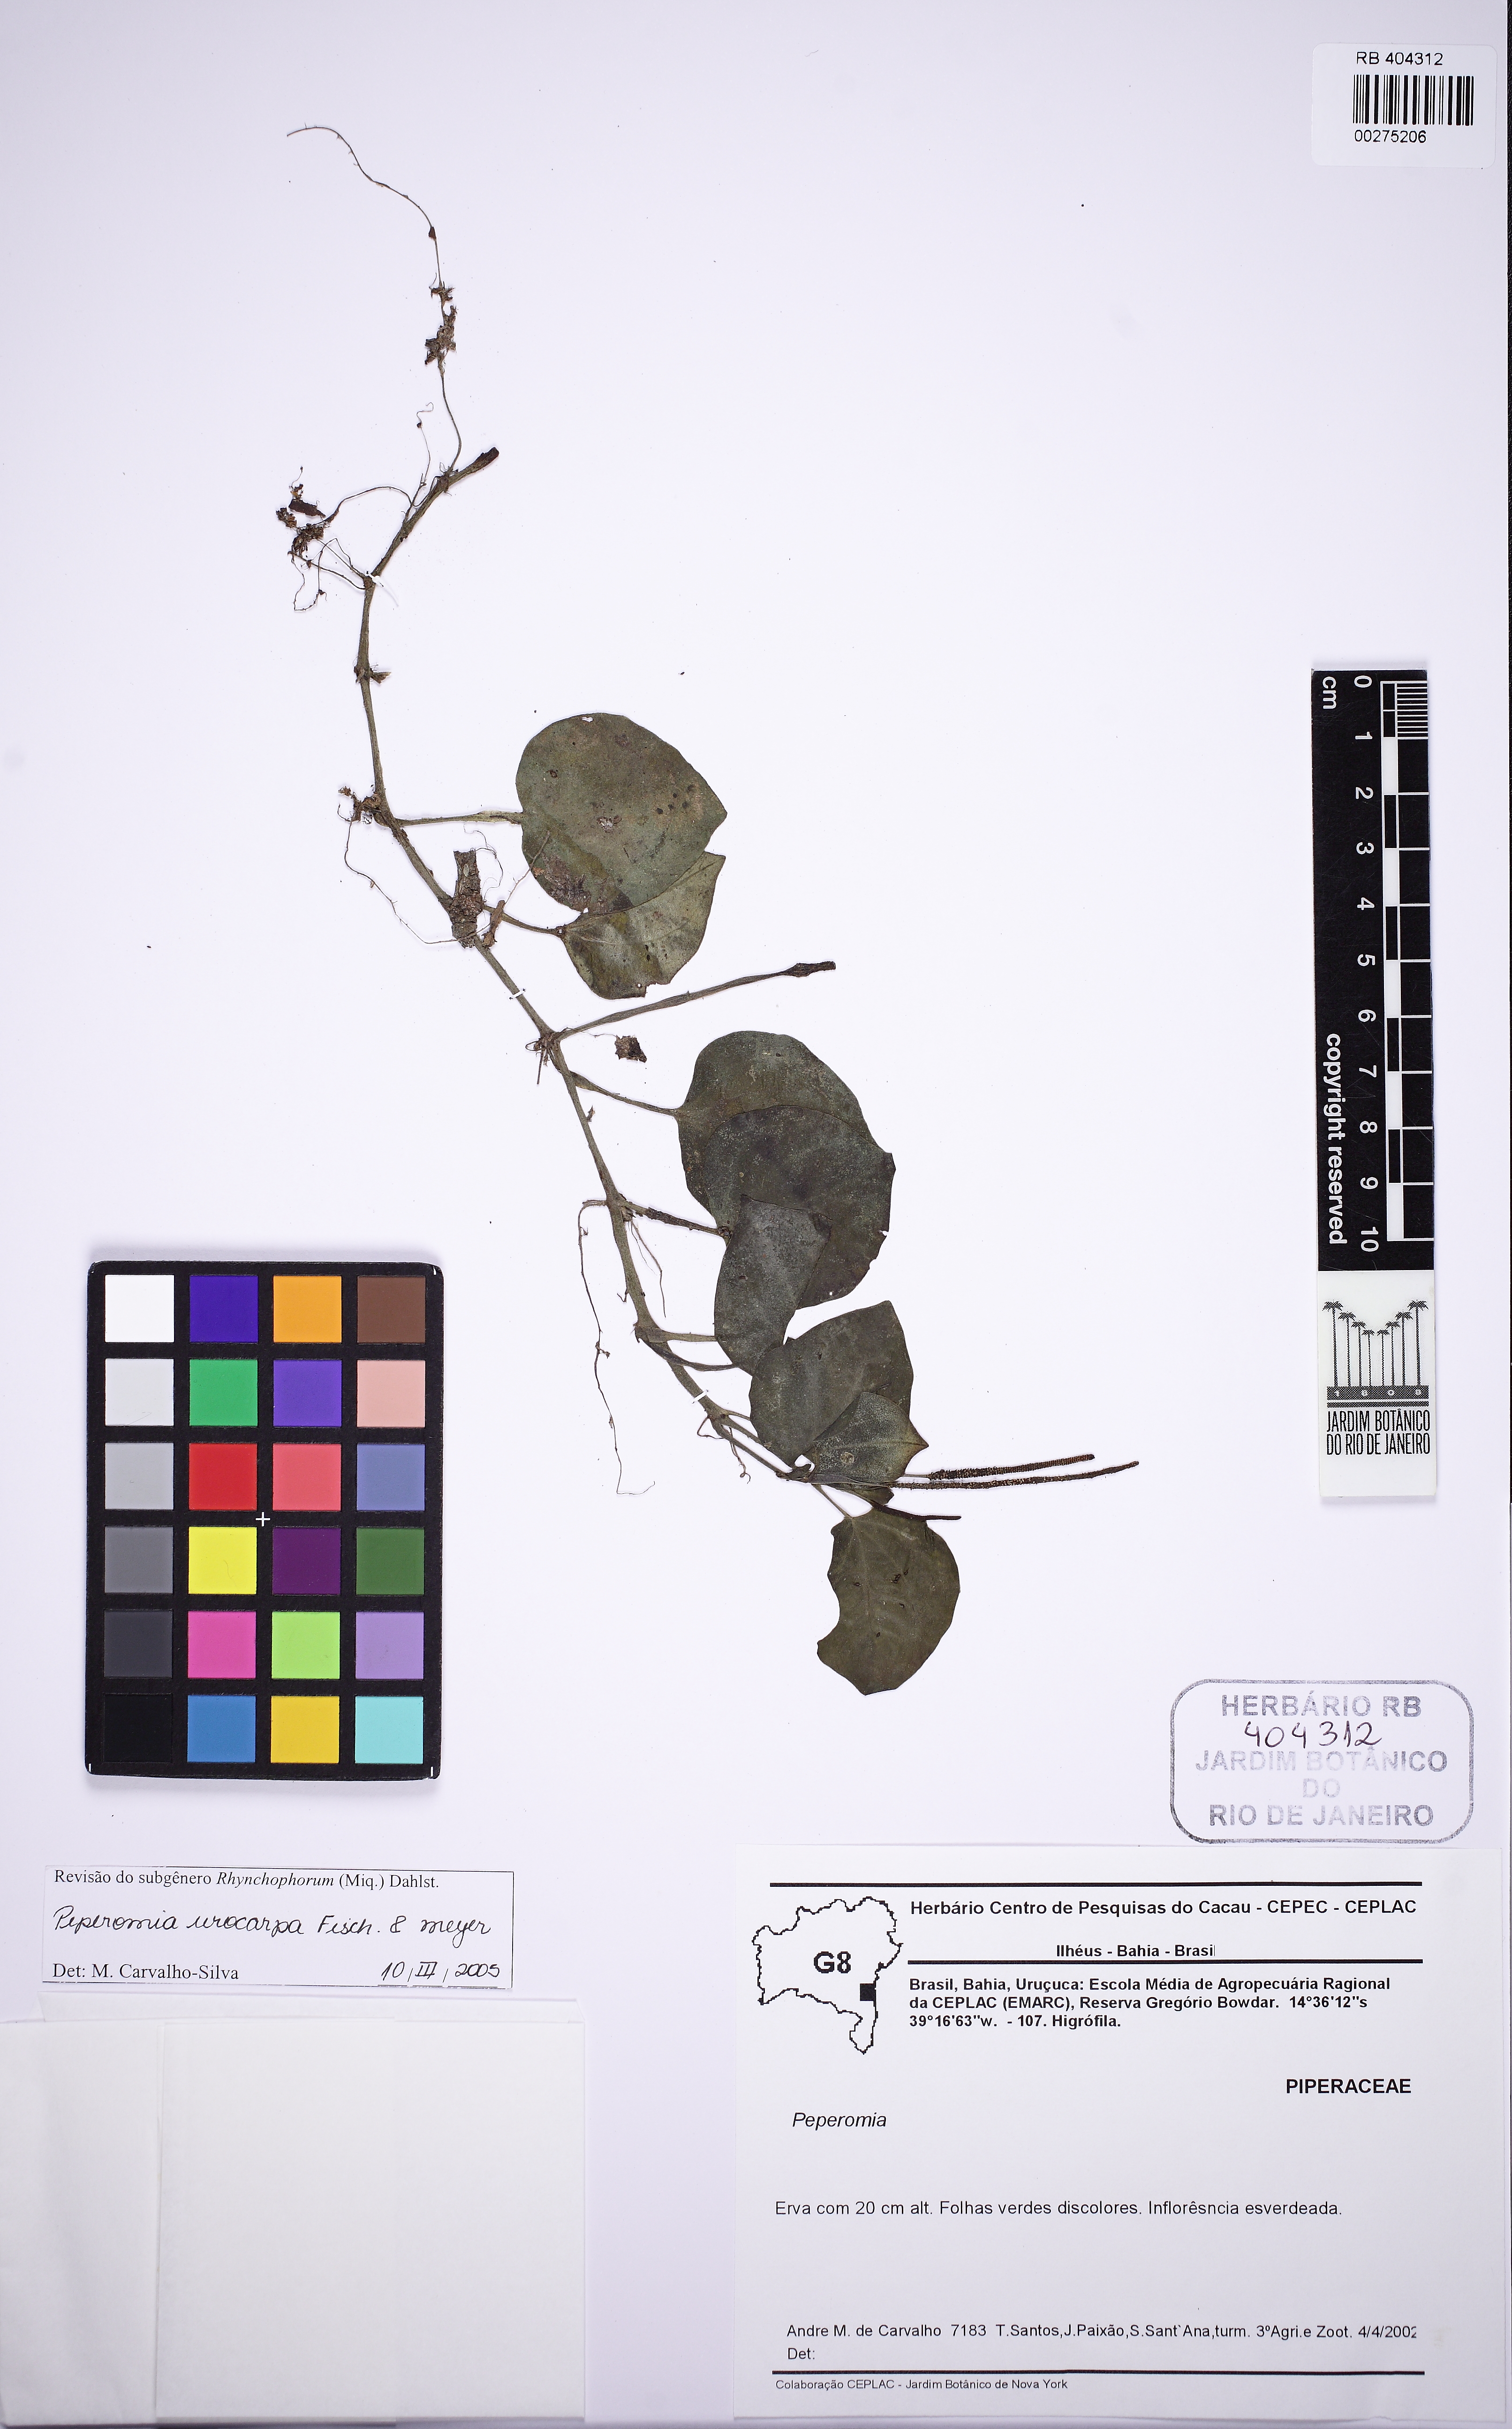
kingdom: Plantae
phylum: Tracheophyta
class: Magnoliopsida
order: Piperales
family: Piperaceae
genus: Peperomia
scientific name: Peperomia urocarpa
